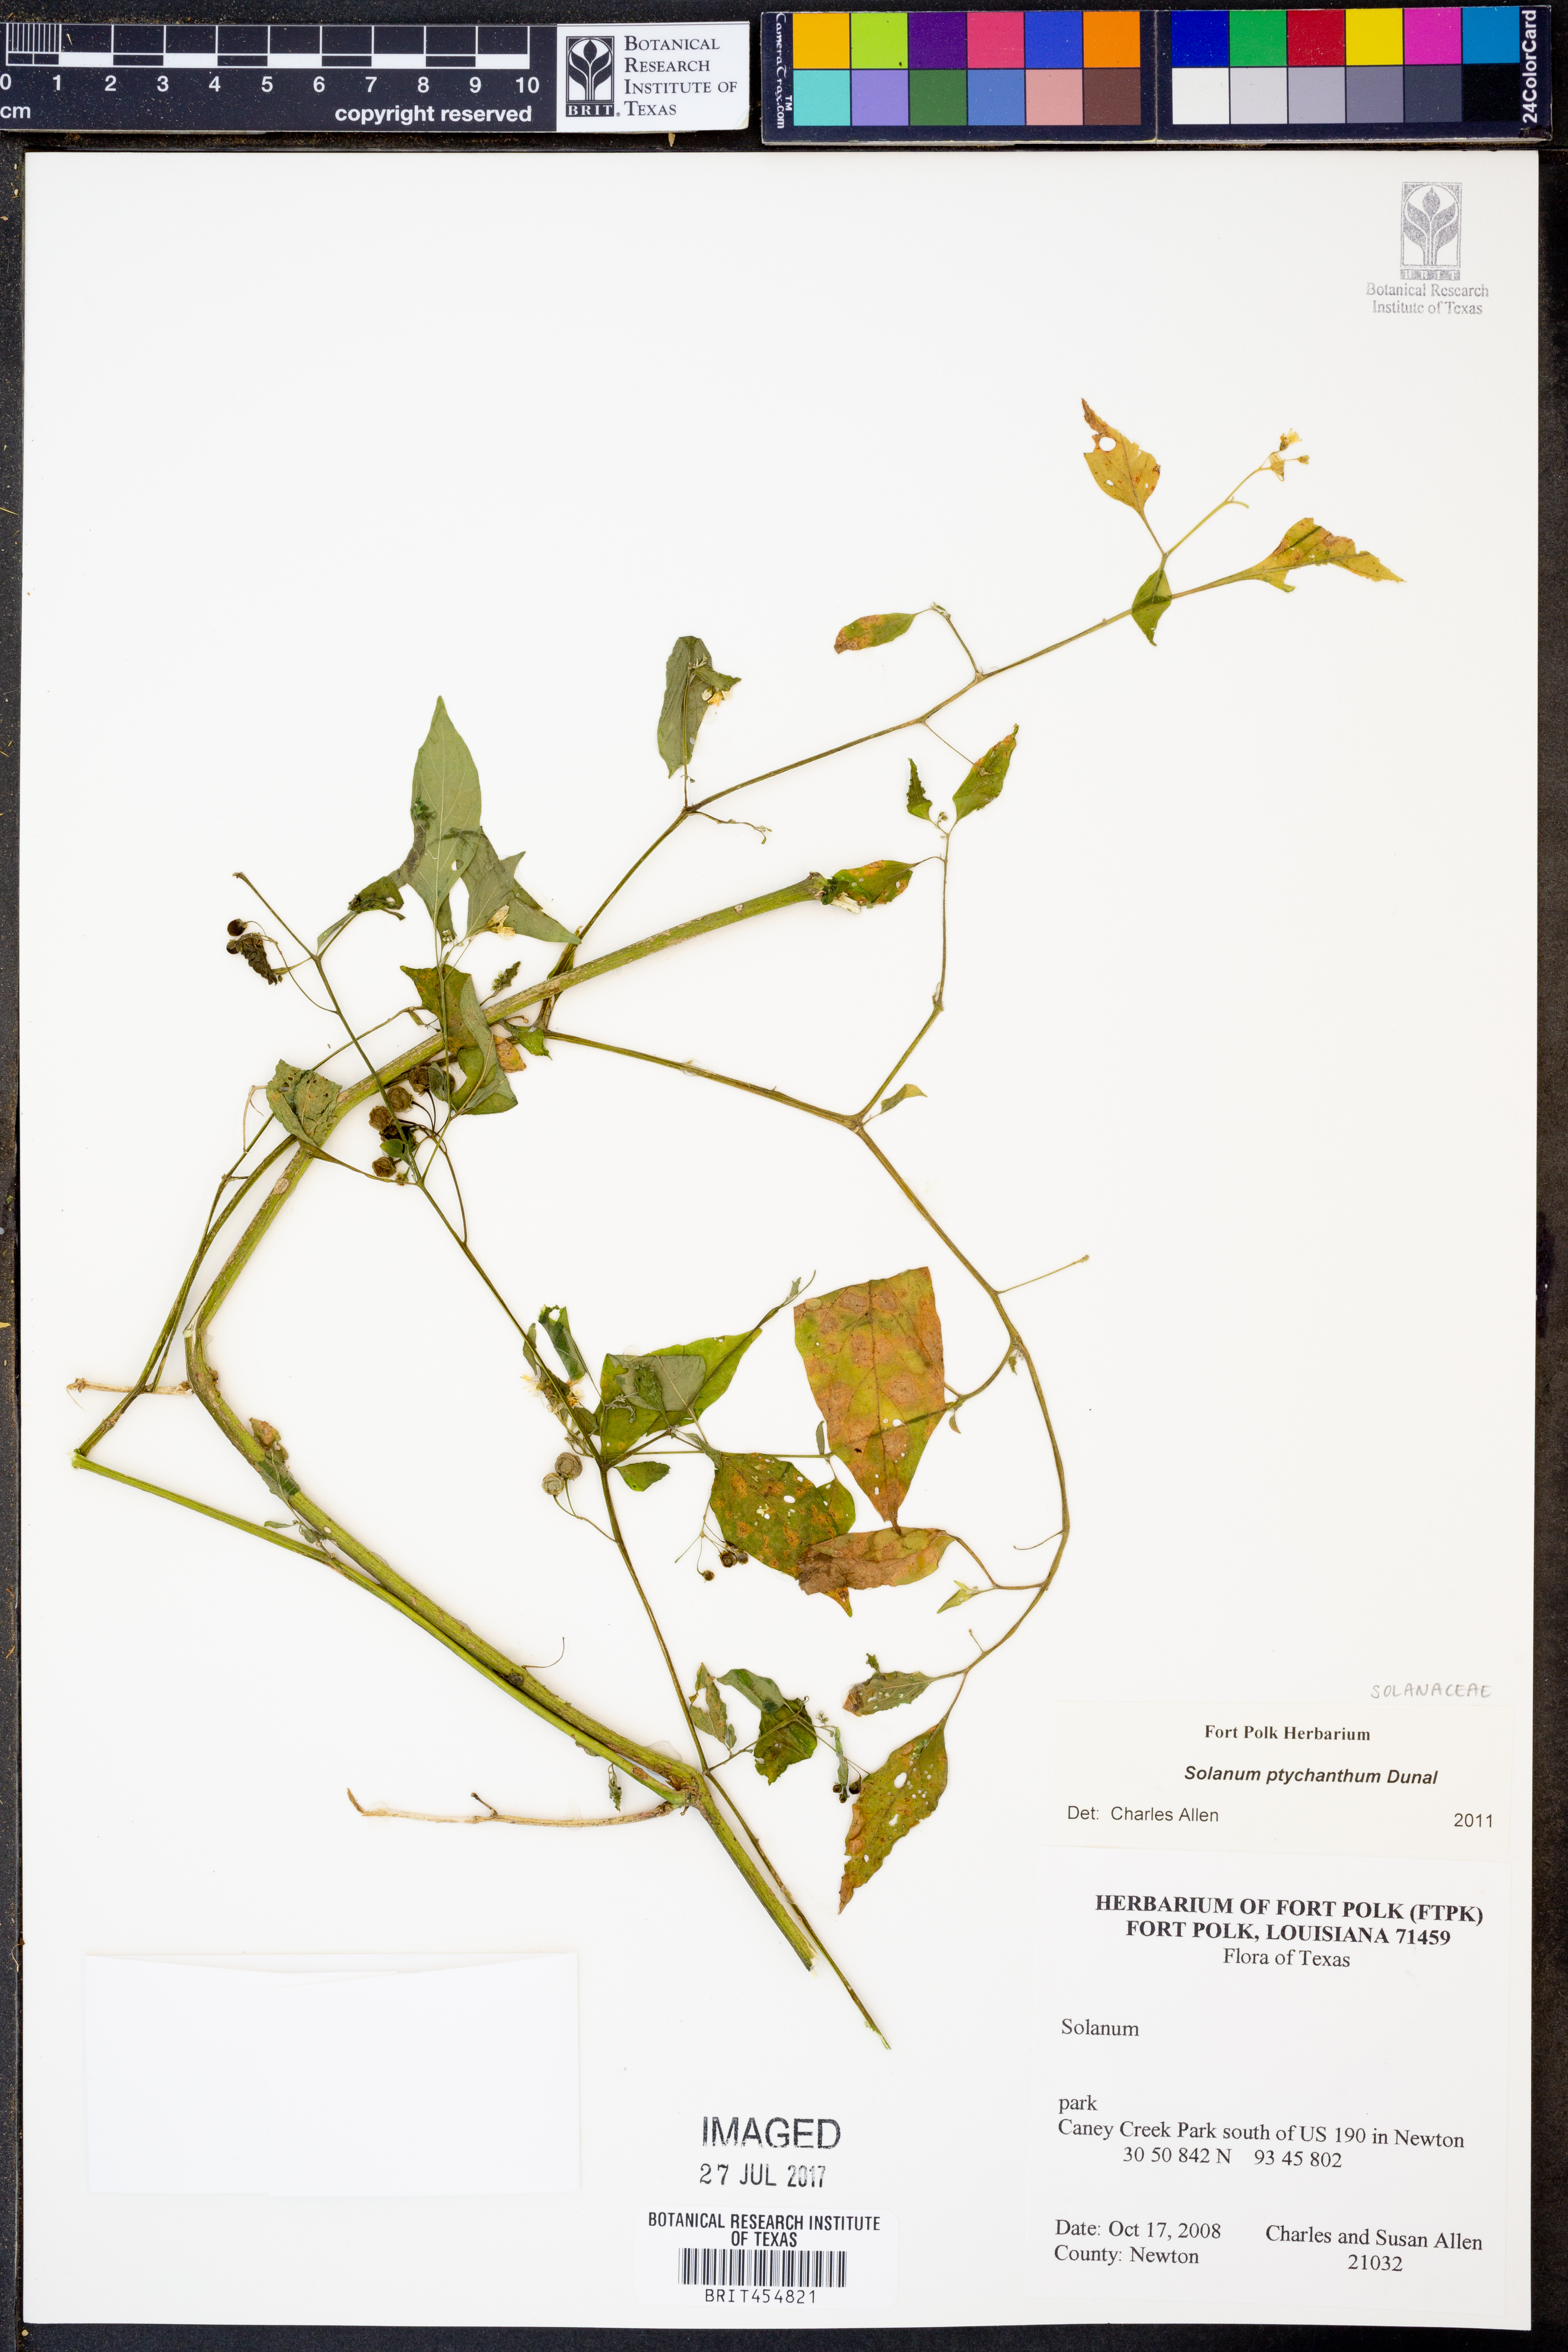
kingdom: Plantae
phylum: Tracheophyta
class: Magnoliopsida
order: Solanales
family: Solanaceae
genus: Solanum
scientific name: Solanum americanum
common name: American black nightshade
